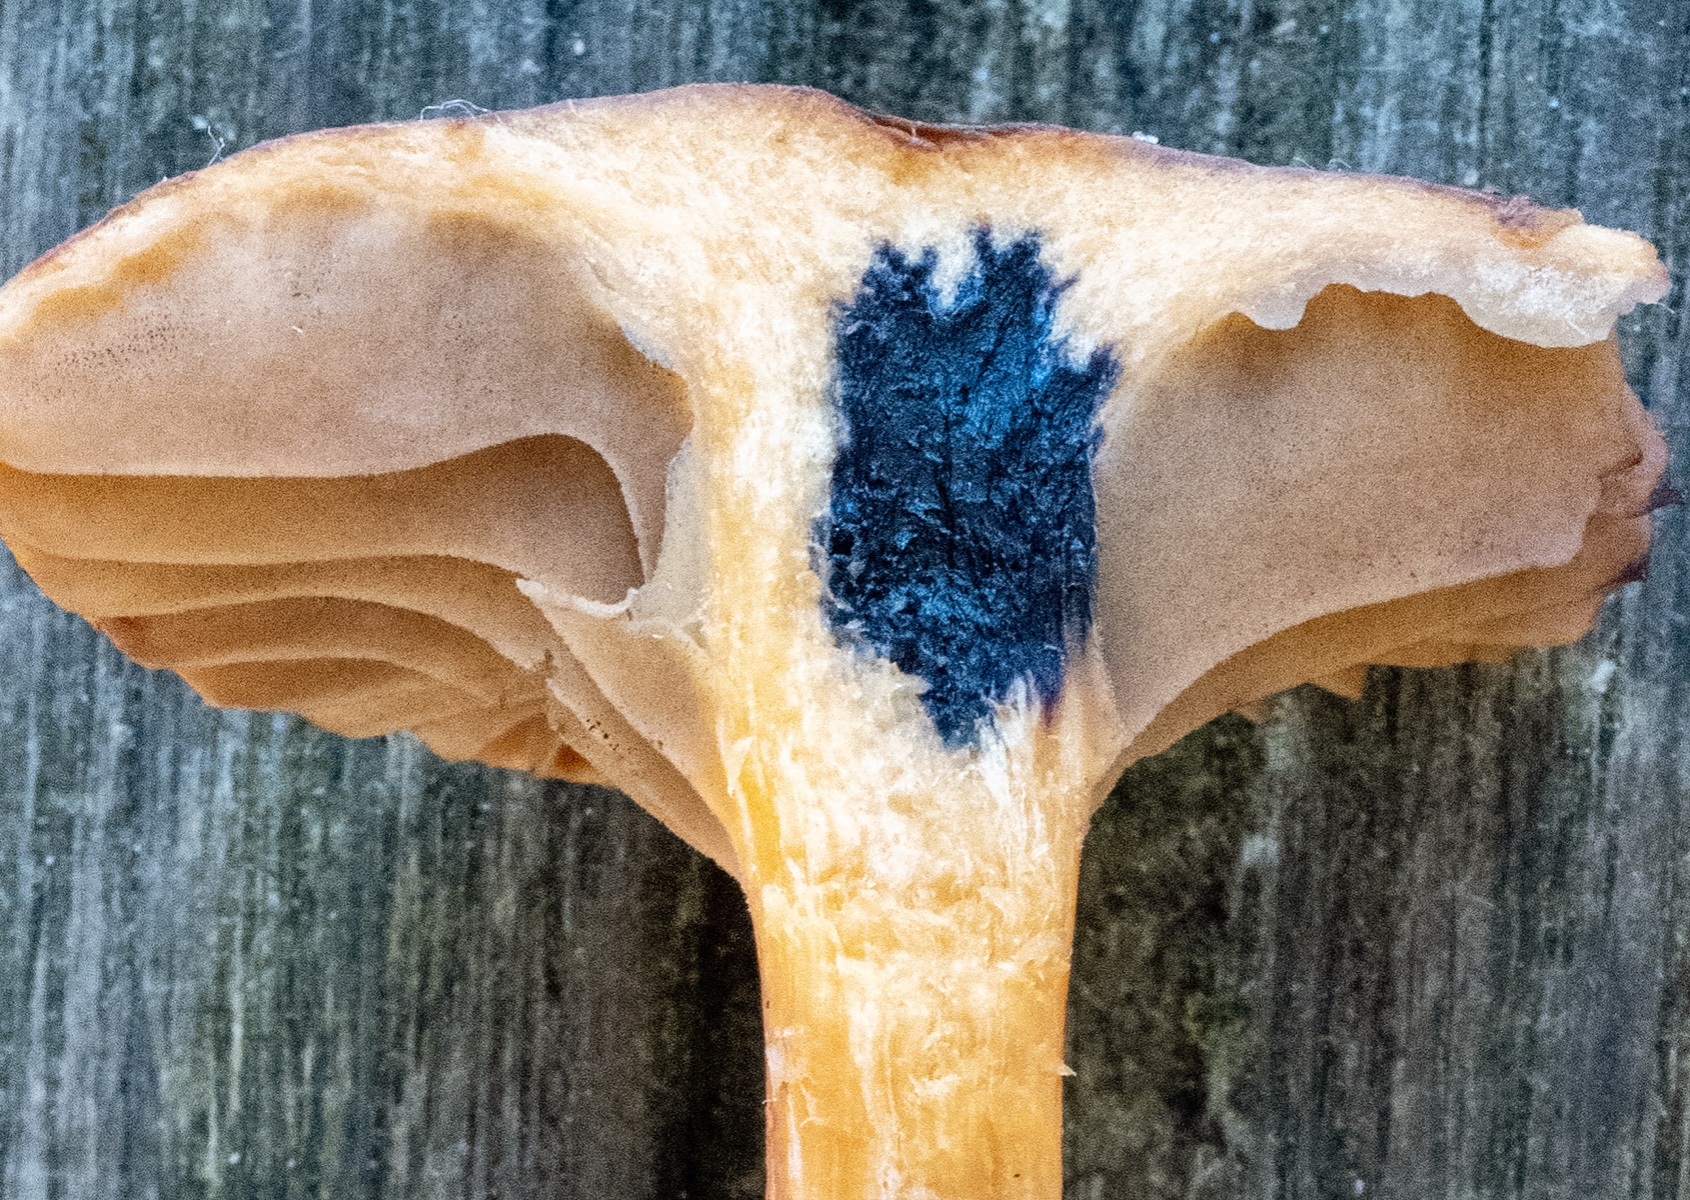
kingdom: Fungi
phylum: Basidiomycota
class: Agaricomycetes
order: Boletales
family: Gomphidiaceae
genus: Chroogomphus
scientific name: Chroogomphus rutilus
